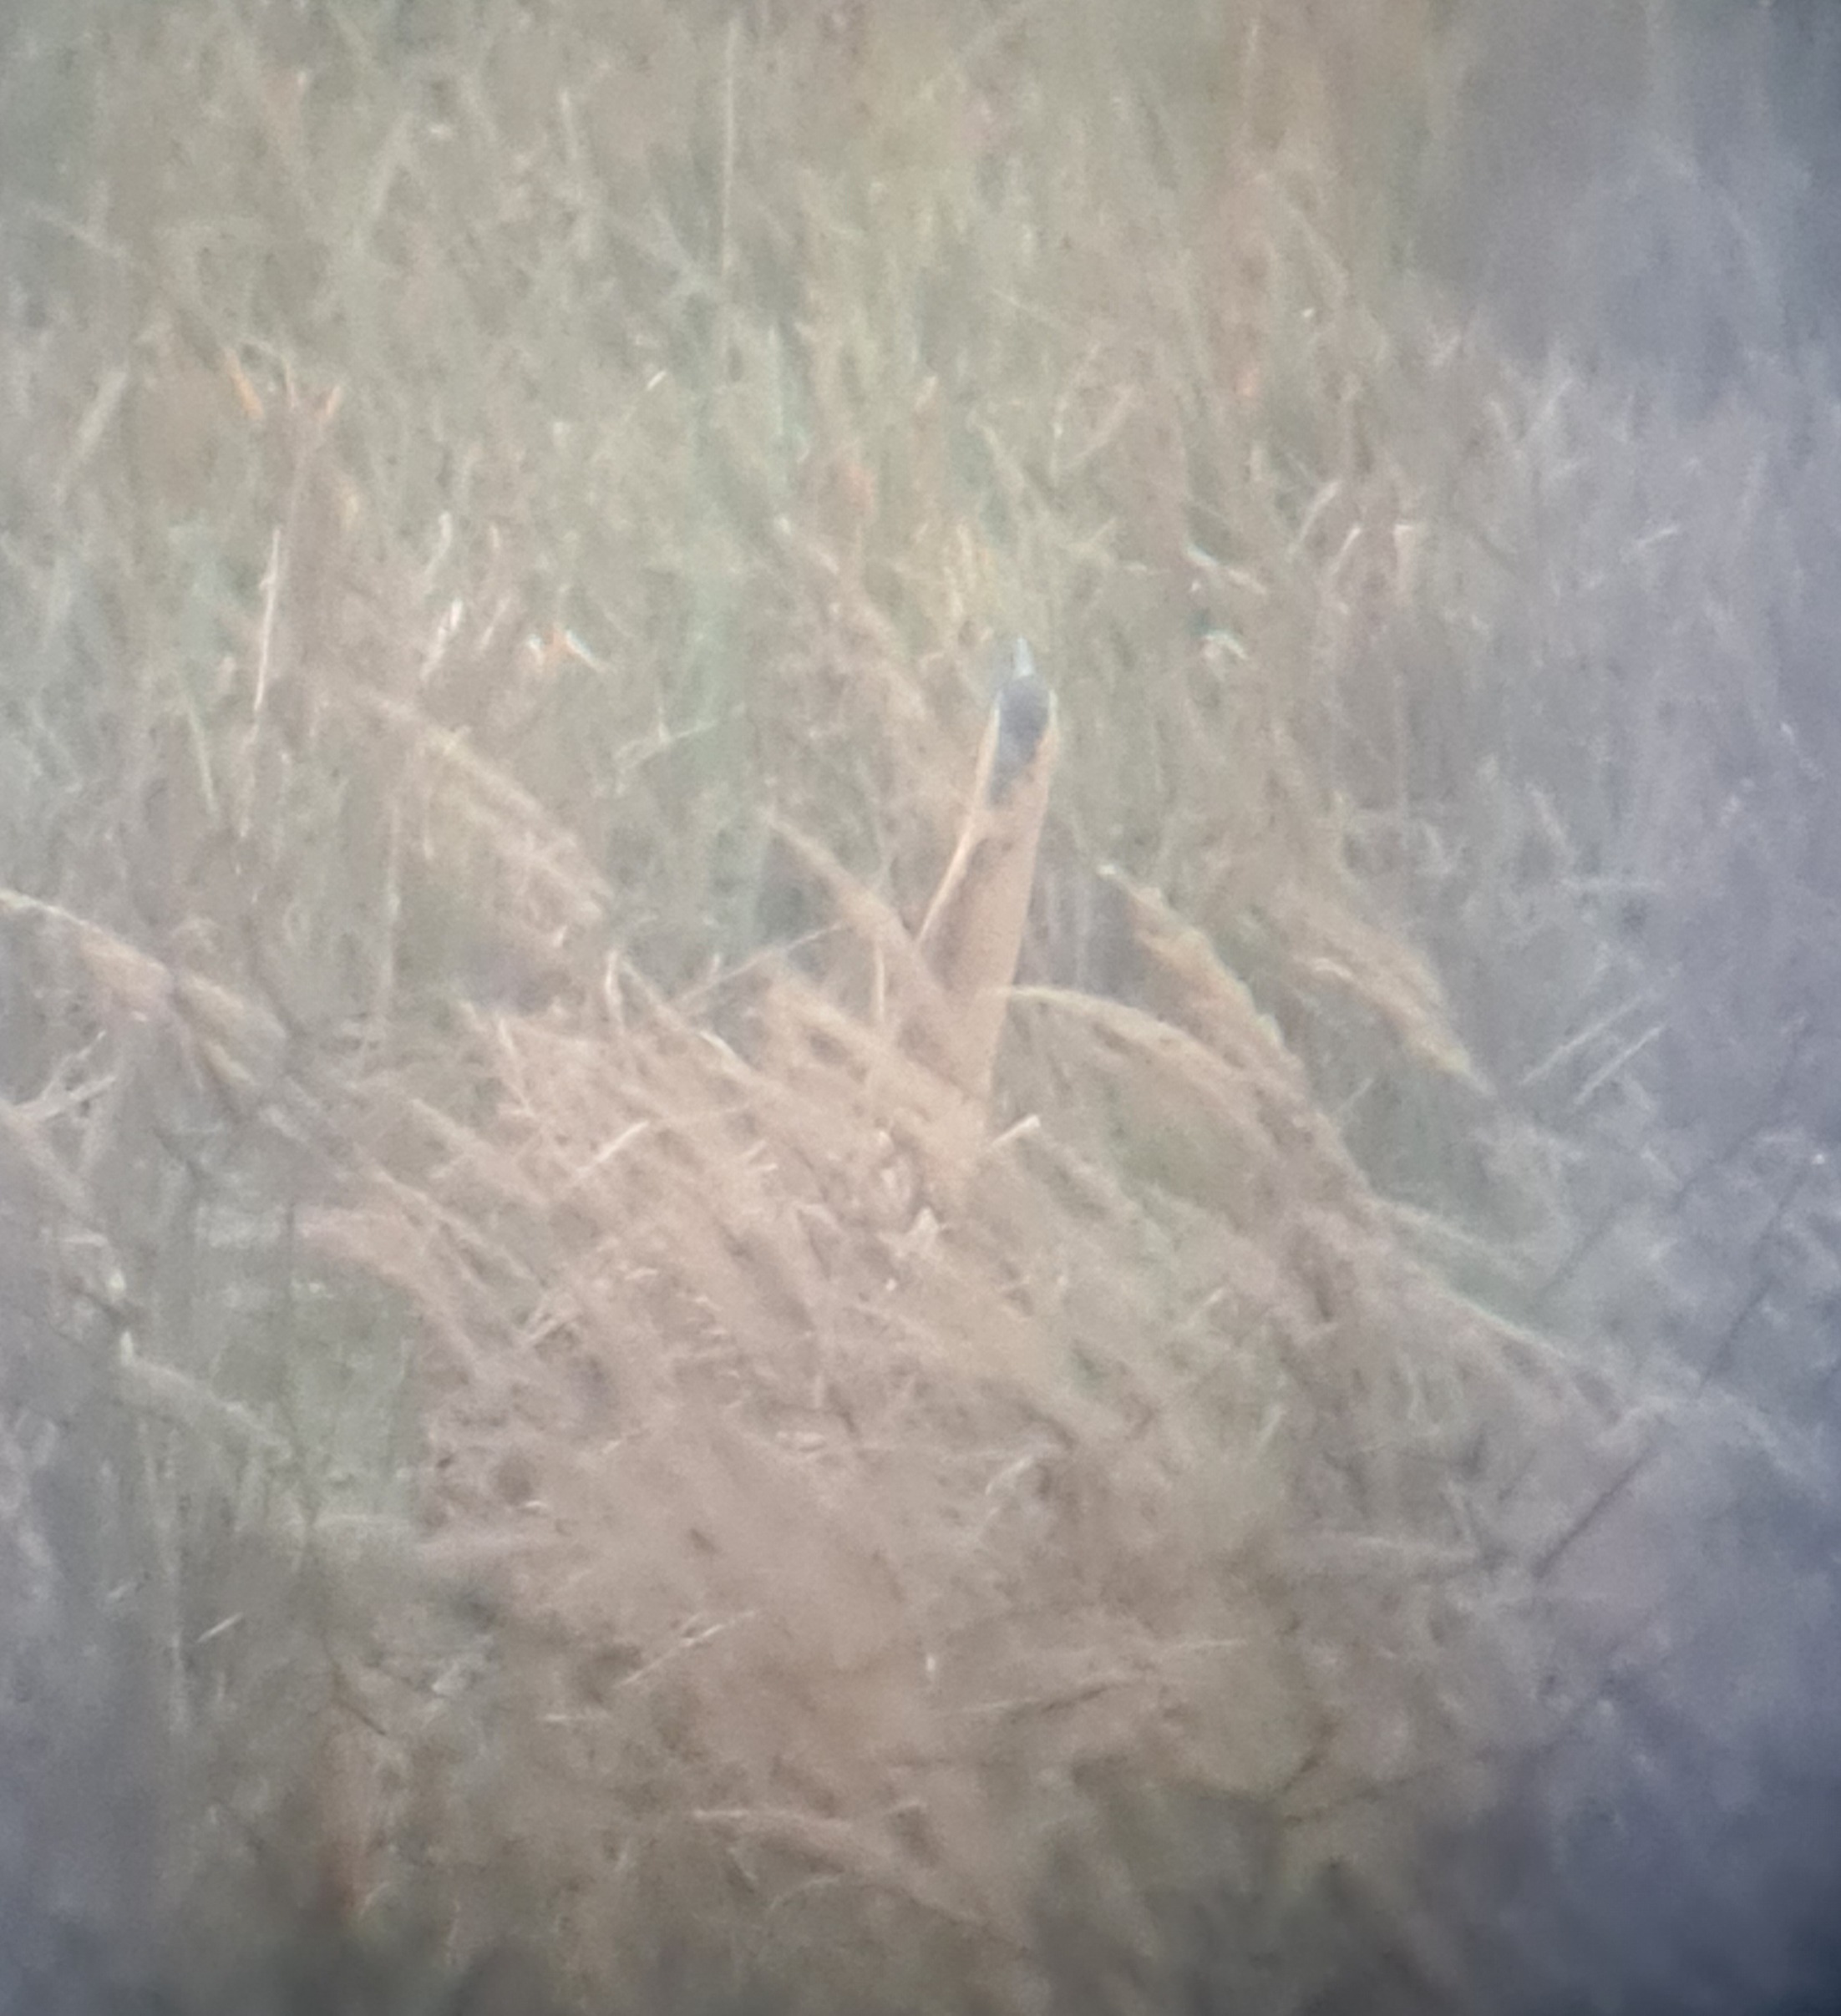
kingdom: Animalia
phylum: Chordata
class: Aves
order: Pelecaniformes
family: Ardeidae
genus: Botaurus
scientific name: Botaurus stellaris
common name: Rørdrum
